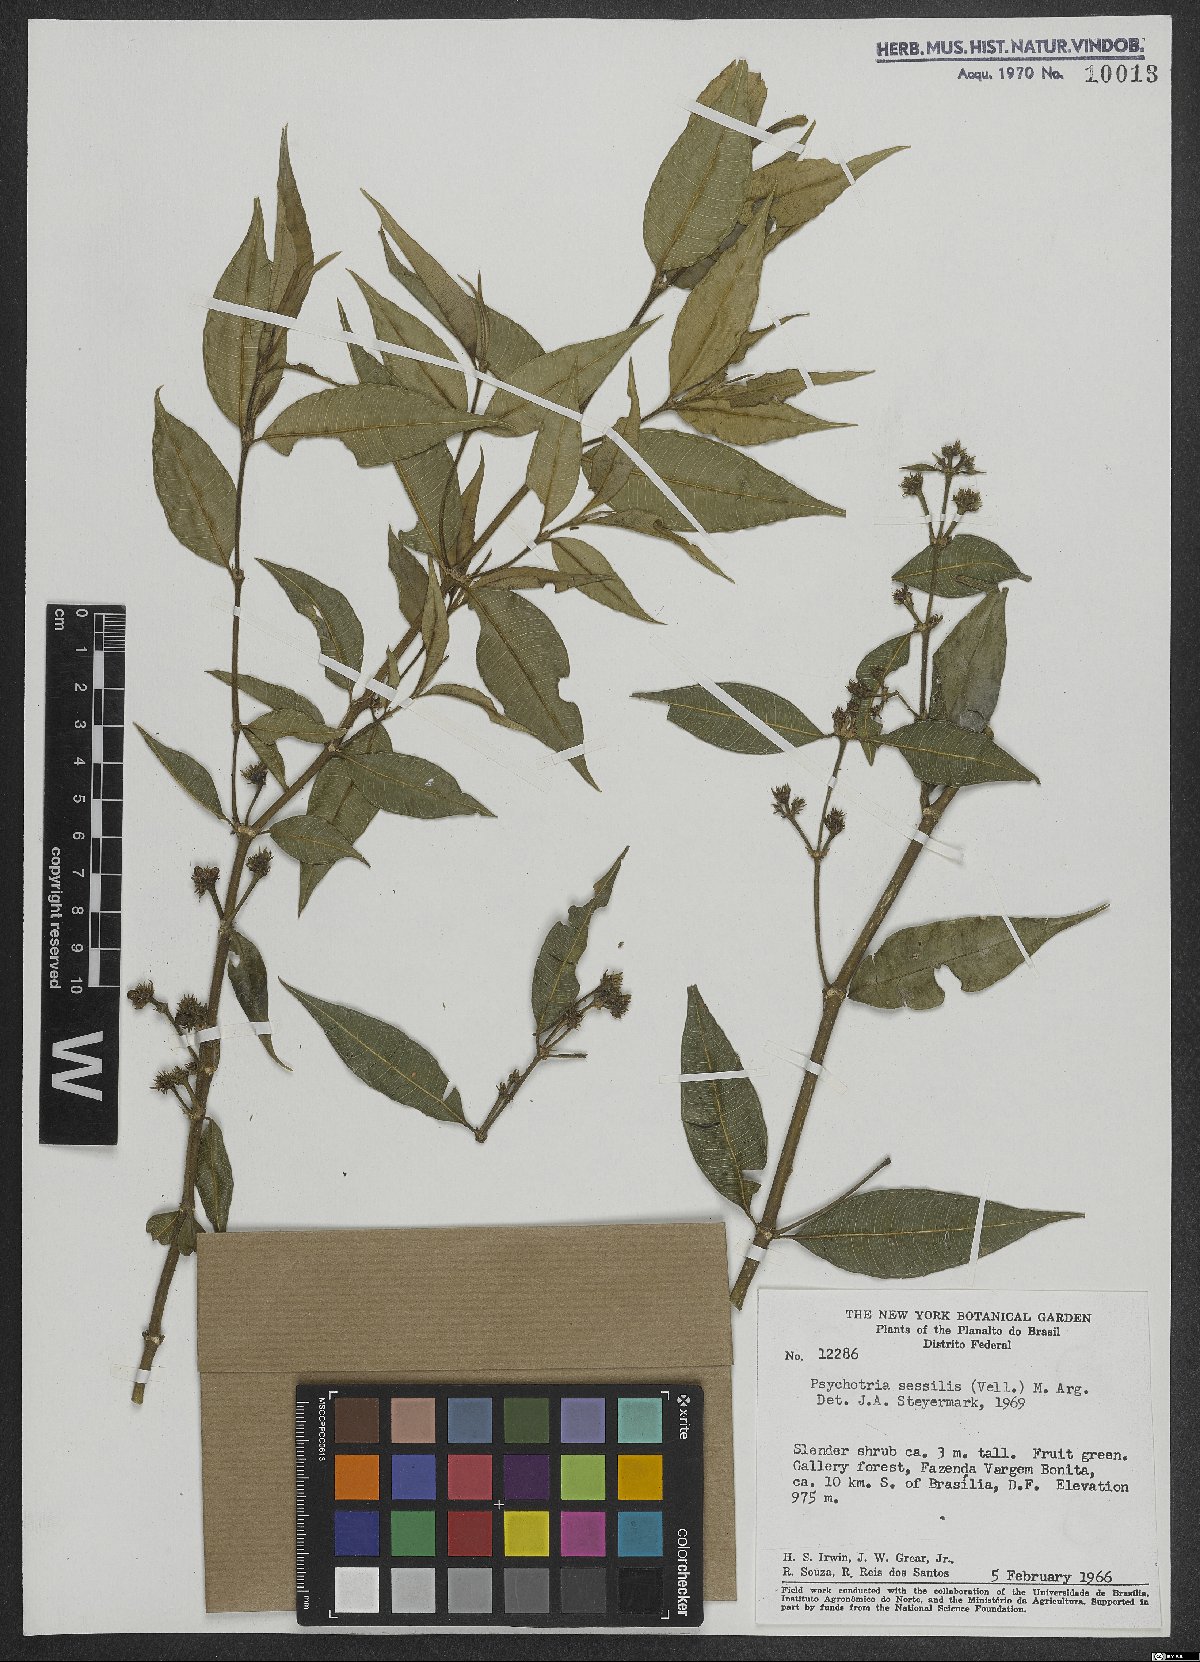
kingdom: Plantae
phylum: Tracheophyta
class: Magnoliopsida
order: Gentianales
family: Rubiaceae
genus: Rudgea
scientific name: Rudgea sessilis
